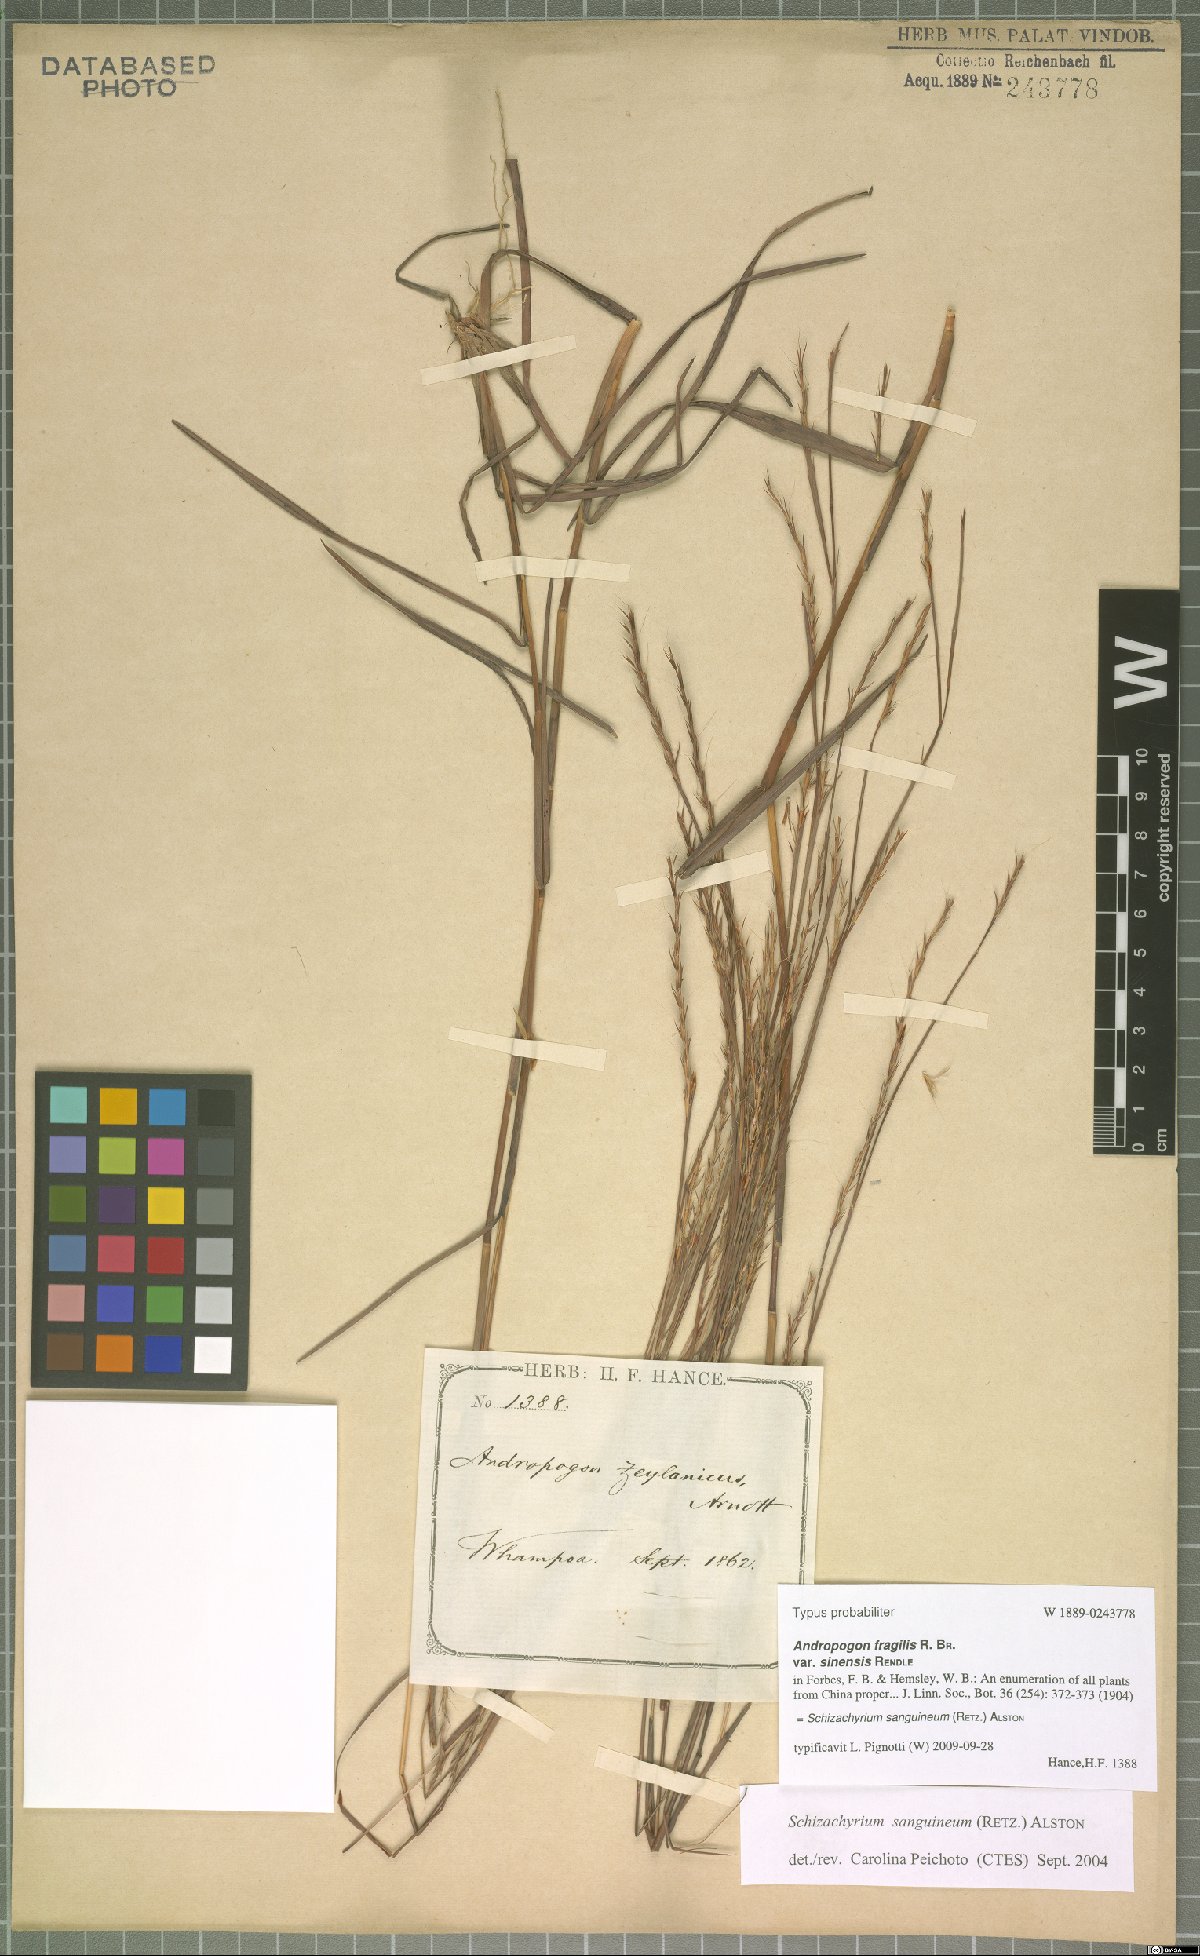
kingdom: Plantae
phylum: Tracheophyta
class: Liliopsida
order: Poales
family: Poaceae
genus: Schizachyrium
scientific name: Schizachyrium sanguineum
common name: Crimson bluestem
